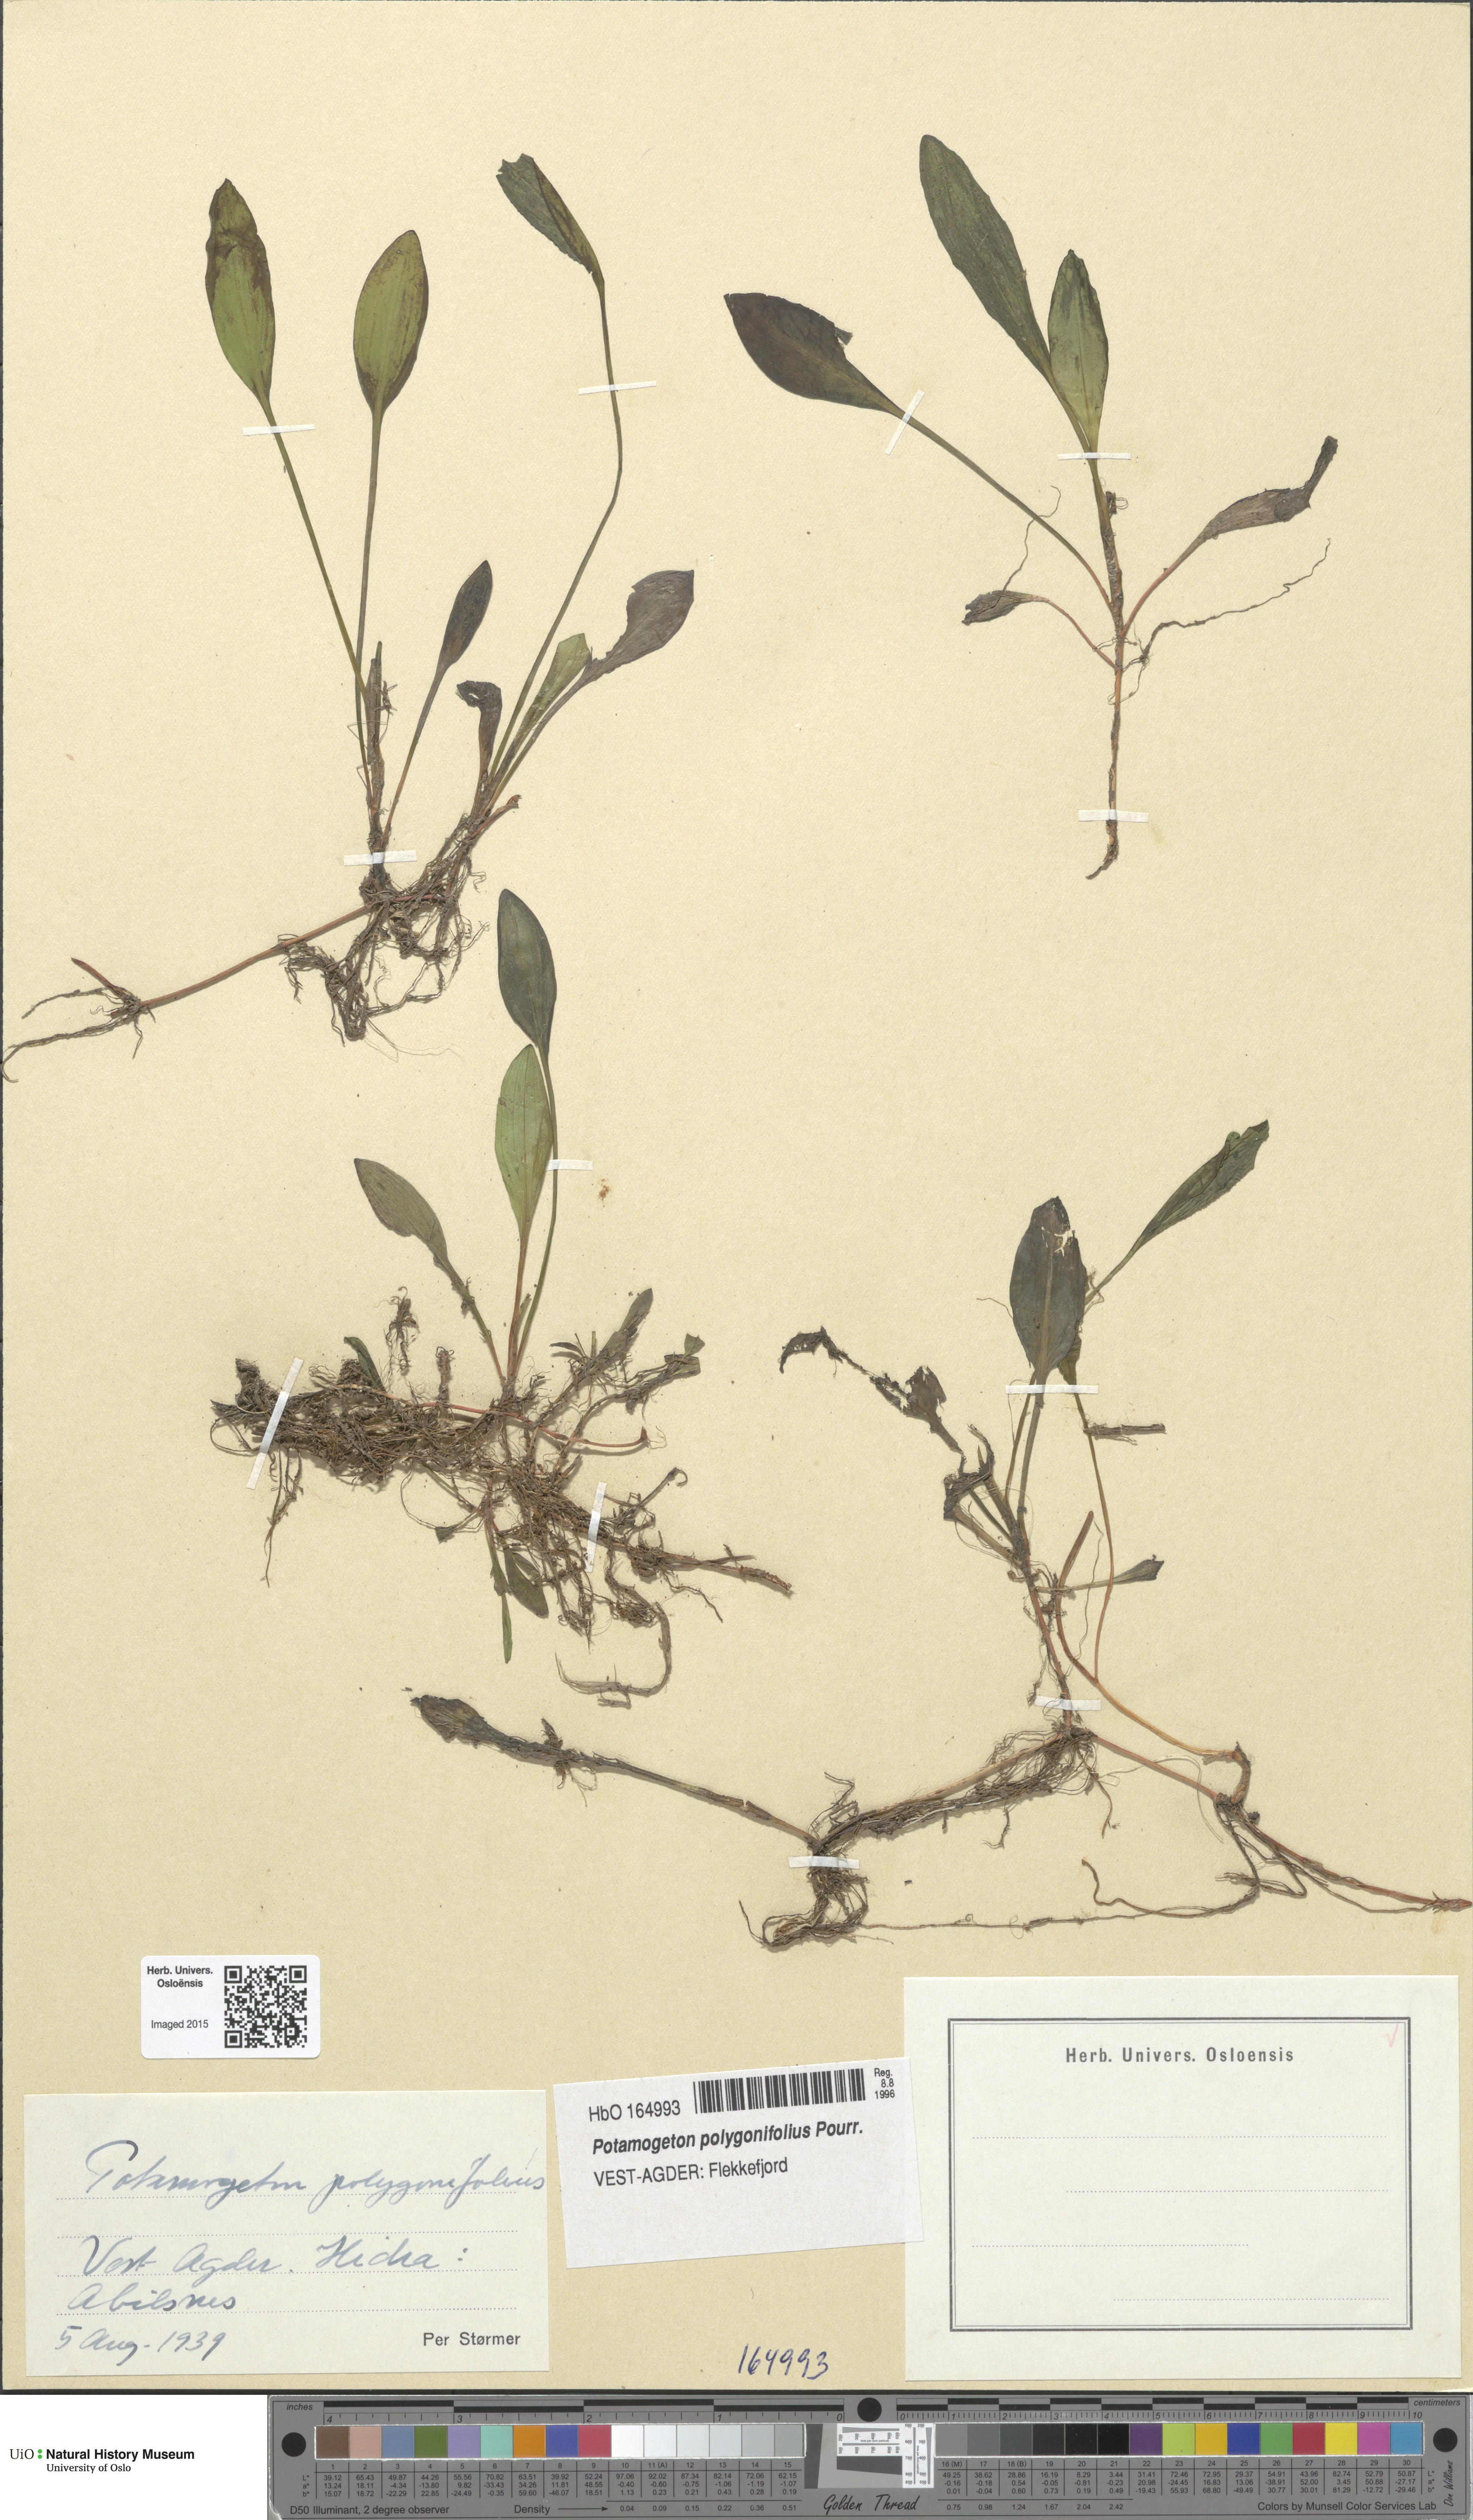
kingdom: Plantae
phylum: Tracheophyta
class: Liliopsida
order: Alismatales
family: Potamogetonaceae
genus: Potamogeton
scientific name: Potamogeton polygonifolius
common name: Bog pondweed
